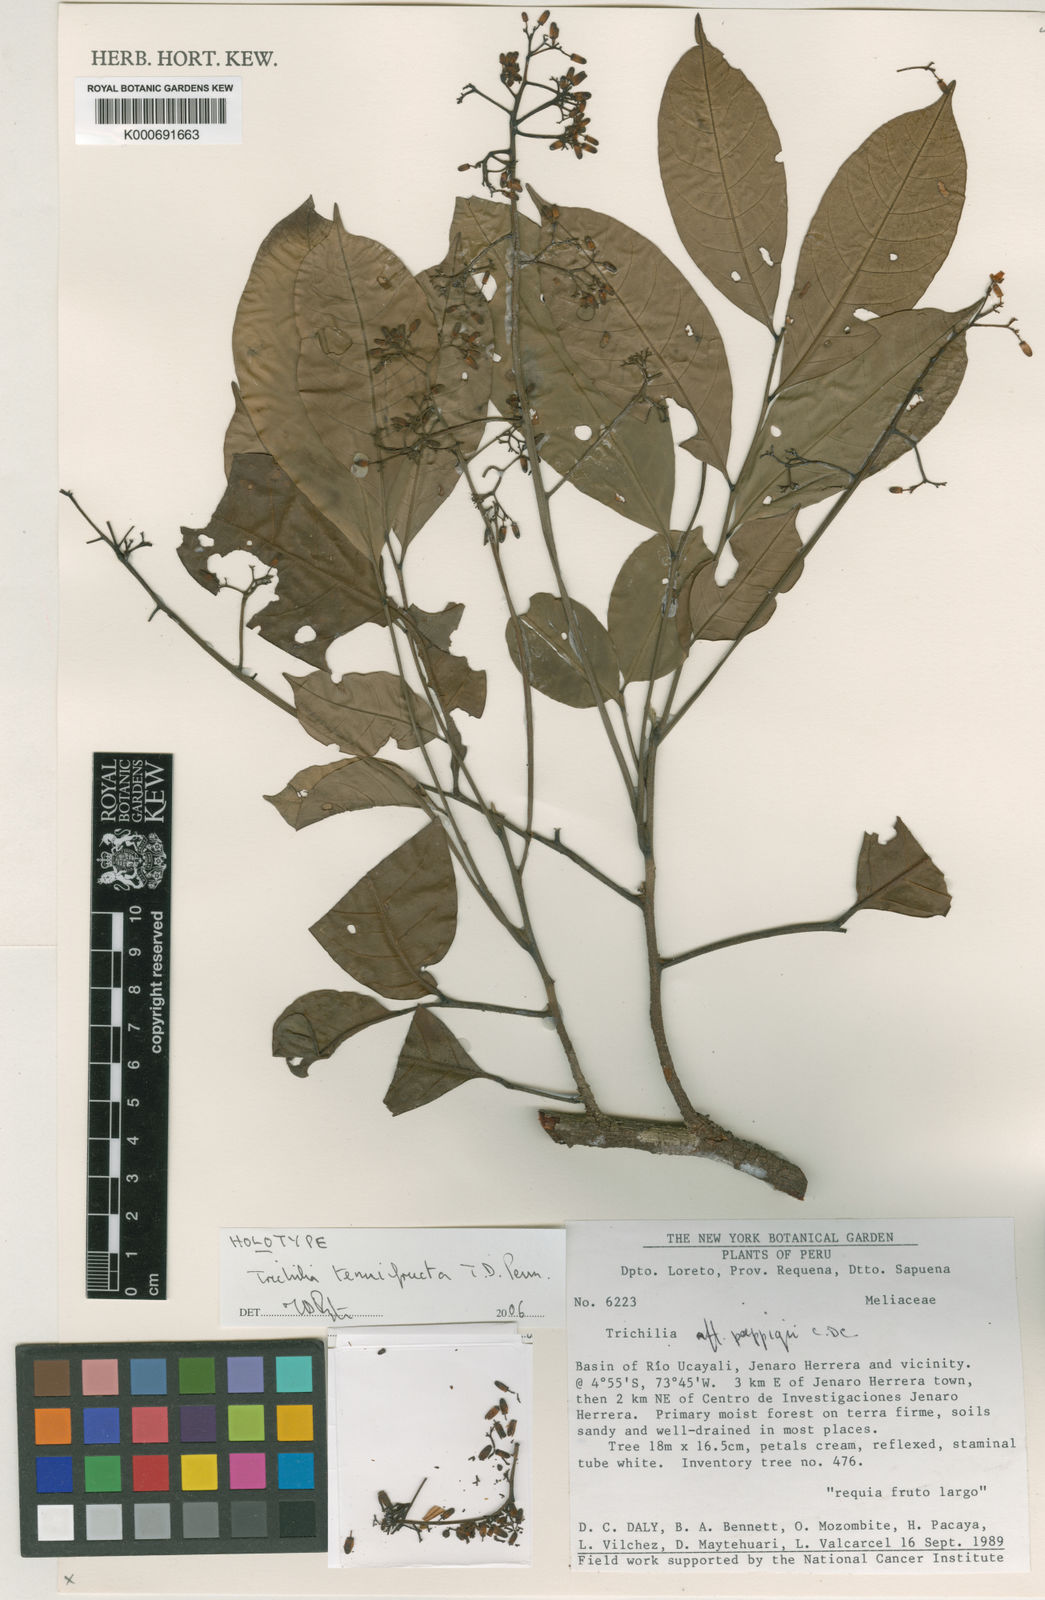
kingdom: Plantae
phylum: Tracheophyta
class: Magnoliopsida
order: Sapindales
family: Meliaceae
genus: Trichilia
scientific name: Trichilia
